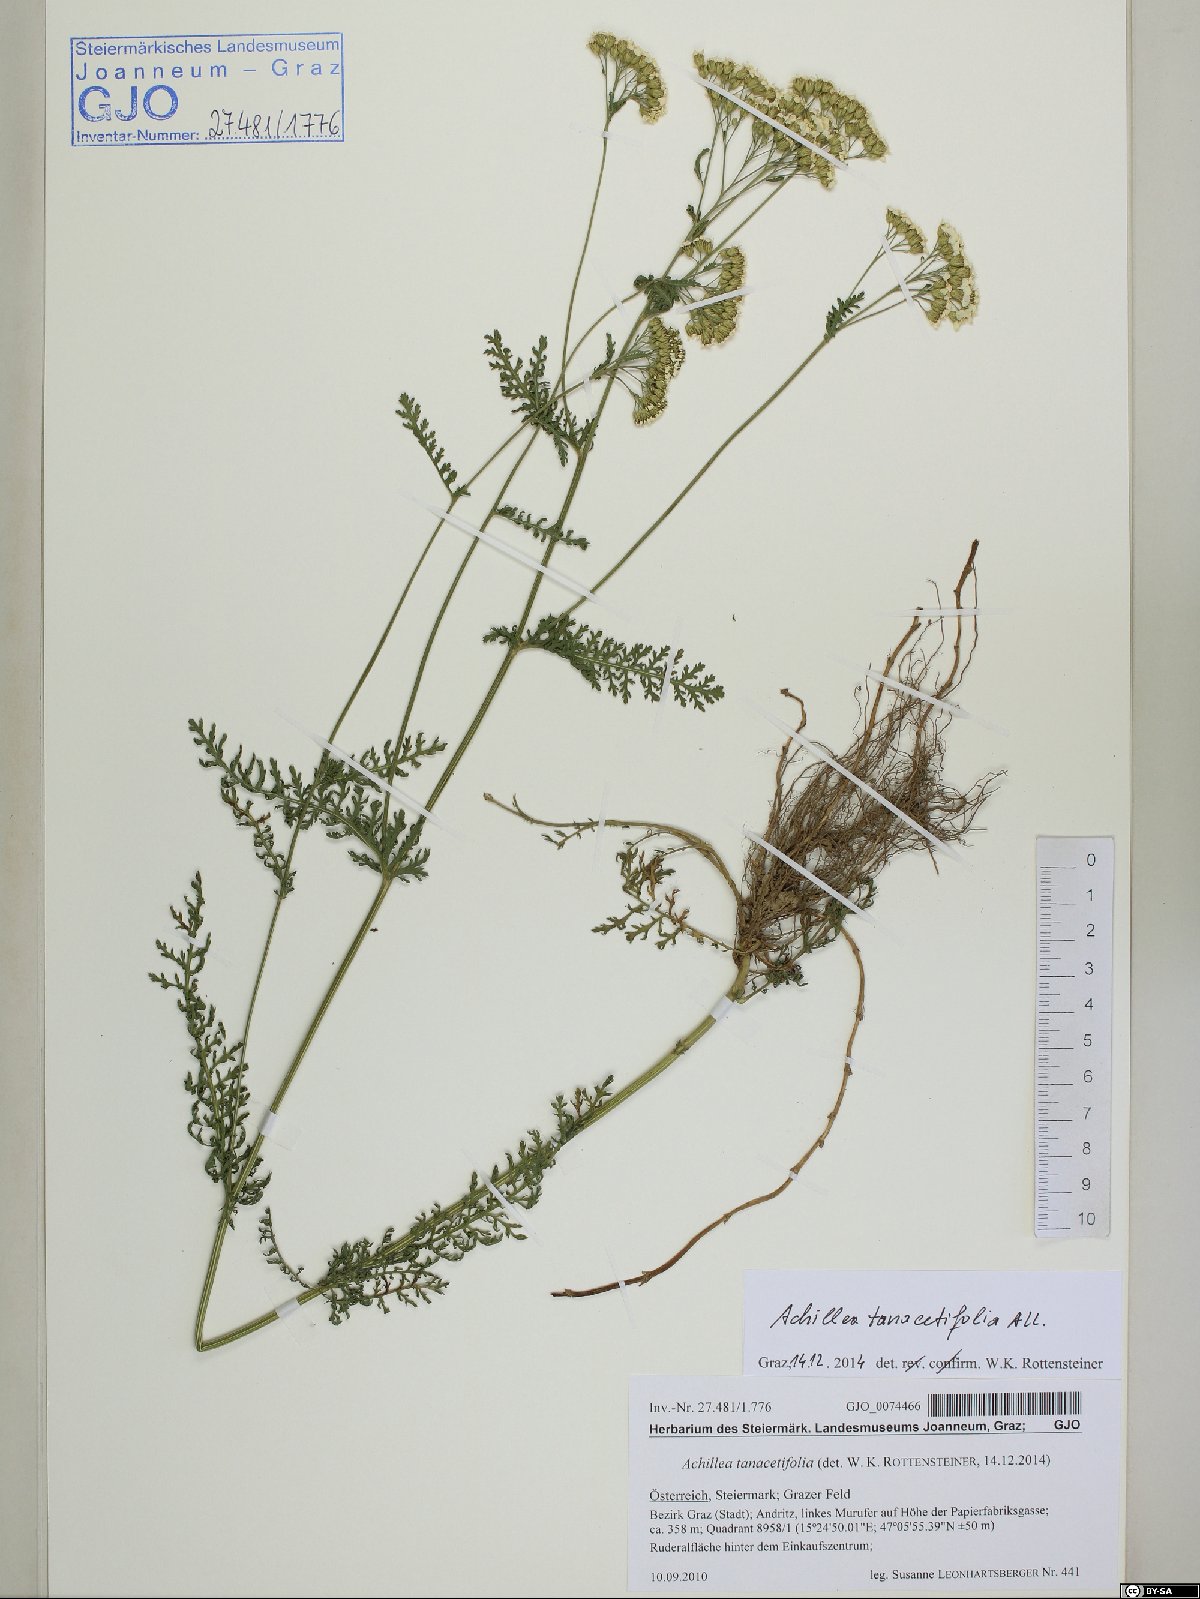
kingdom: Plantae
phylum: Tracheophyta
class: Magnoliopsida
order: Asterales
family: Asteraceae
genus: Achillea
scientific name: Achillea distans
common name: Tall yarrow
